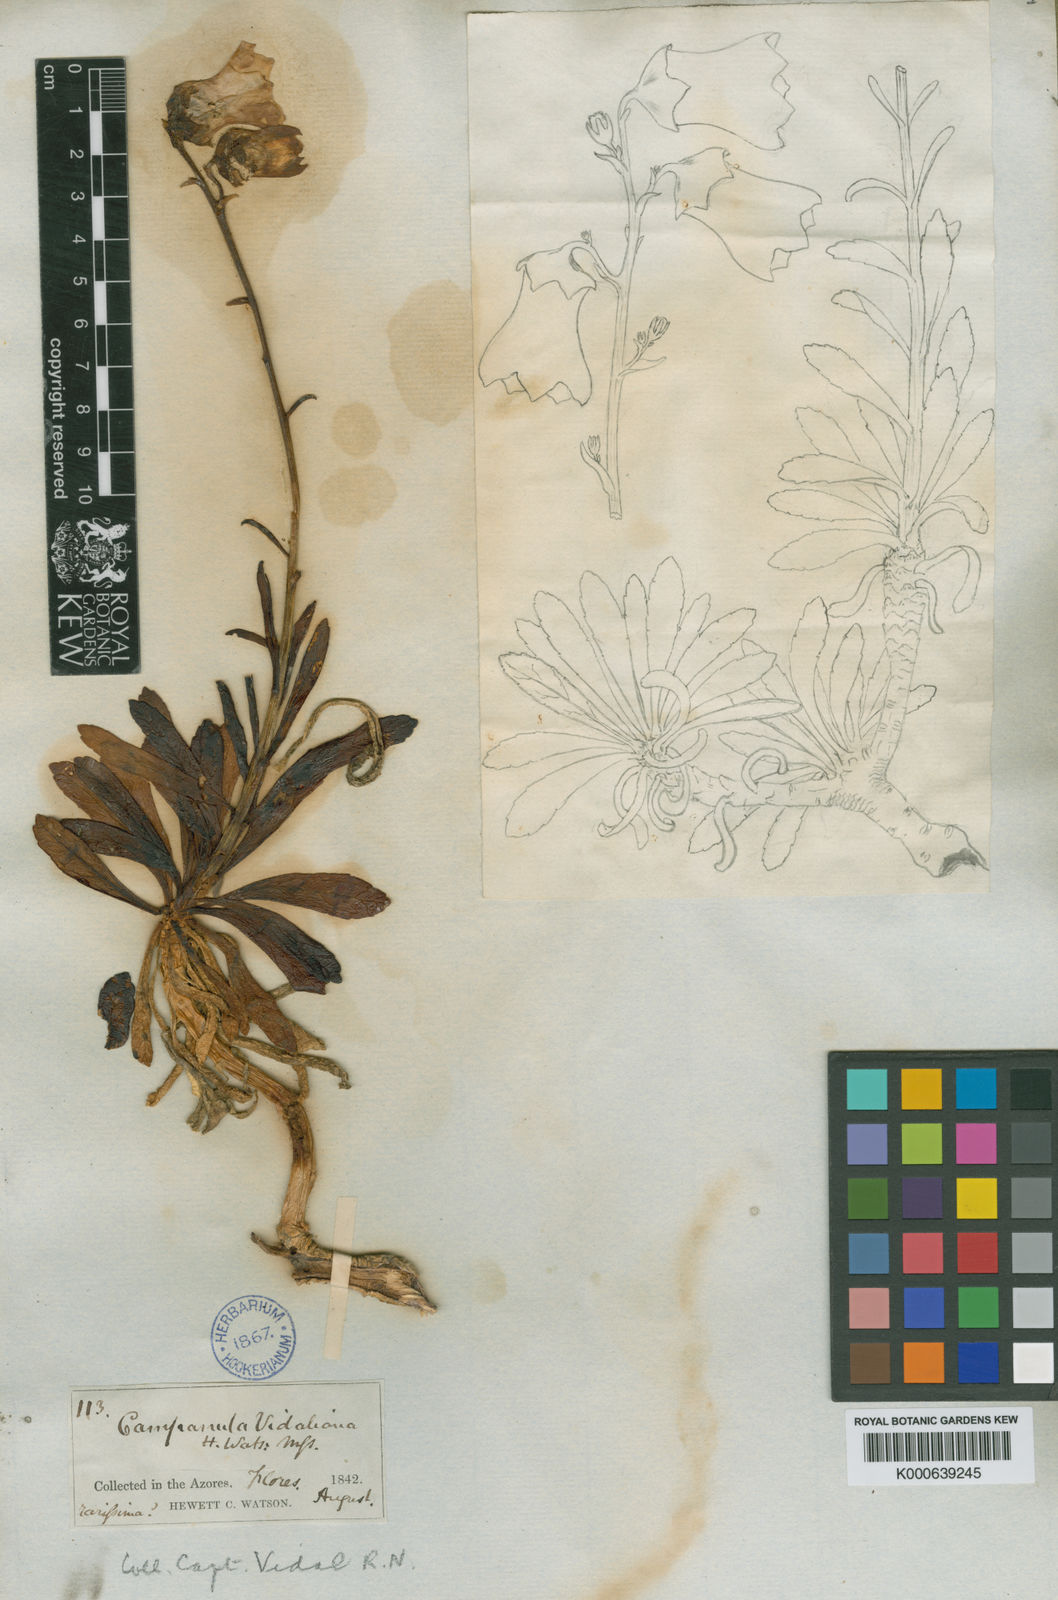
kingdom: Plantae
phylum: Tracheophyta
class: Magnoliopsida
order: Asterales
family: Campanulaceae
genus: Campanula
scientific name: Campanula vidalii
